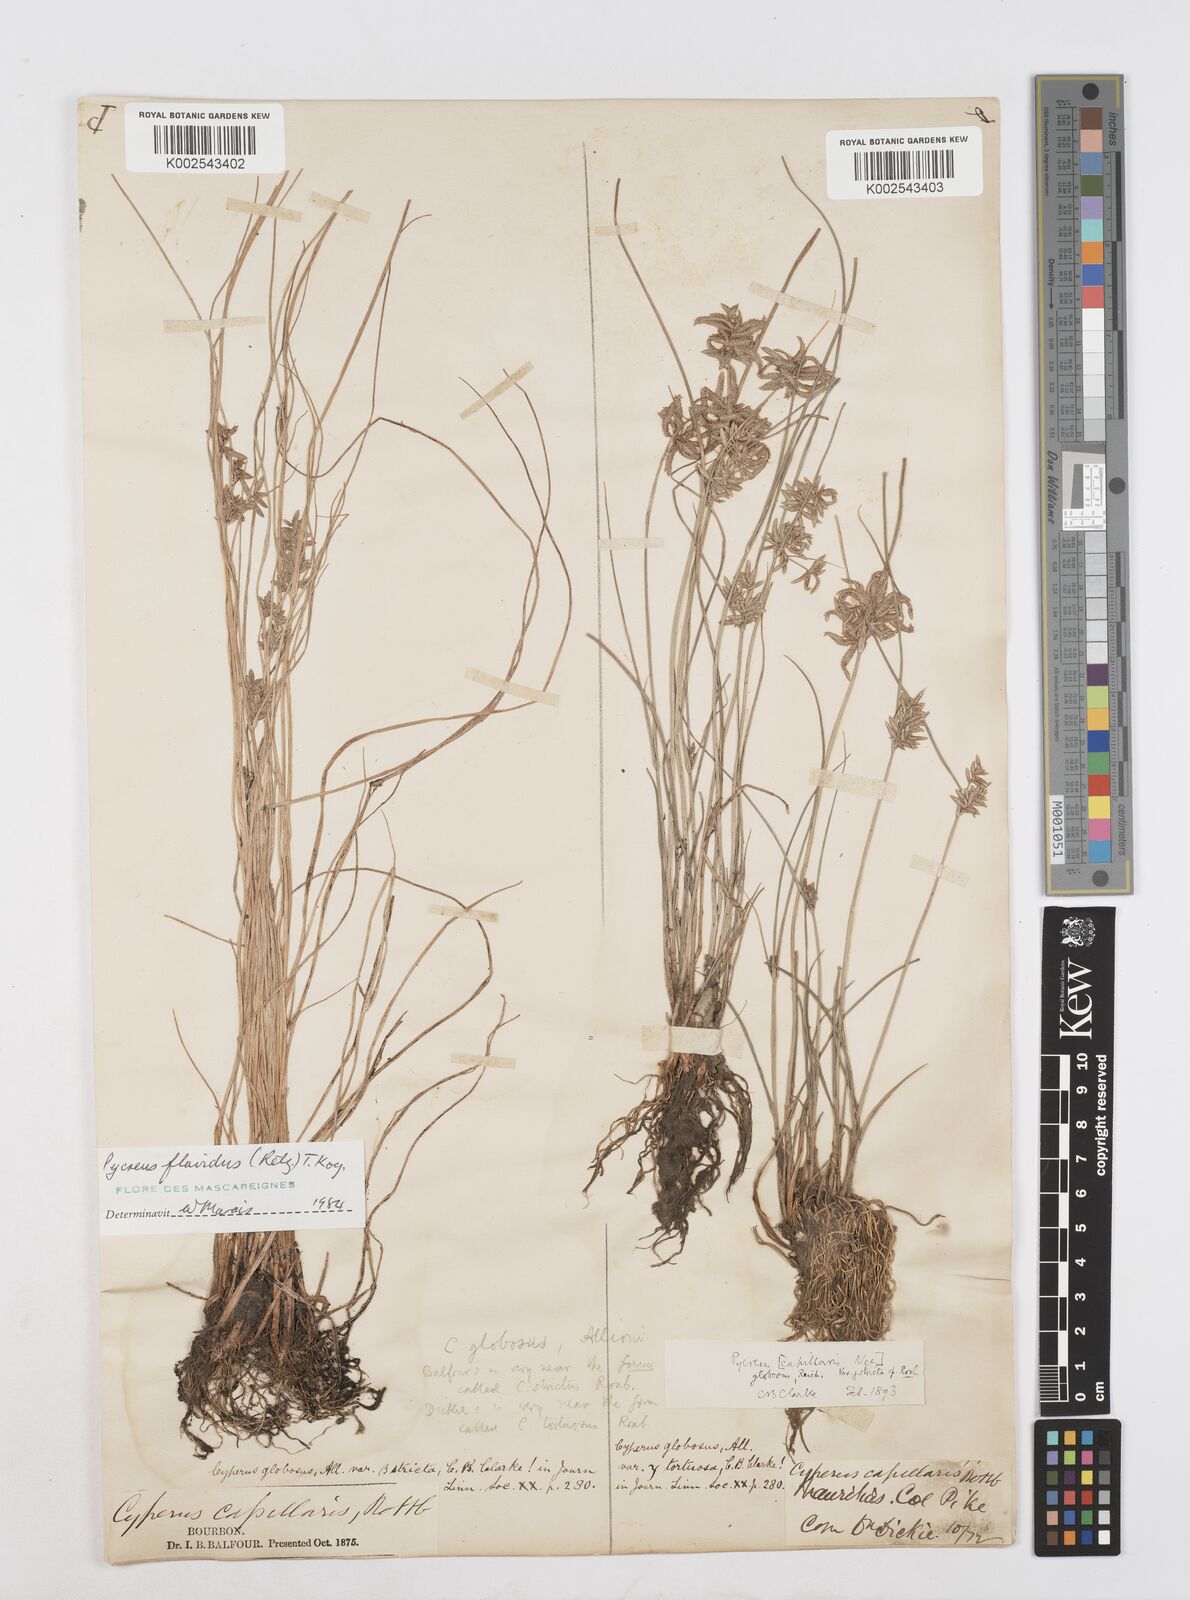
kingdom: Plantae
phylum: Tracheophyta
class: Liliopsida
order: Poales
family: Cyperaceae
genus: Cyperus
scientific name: Cyperus flavidus
